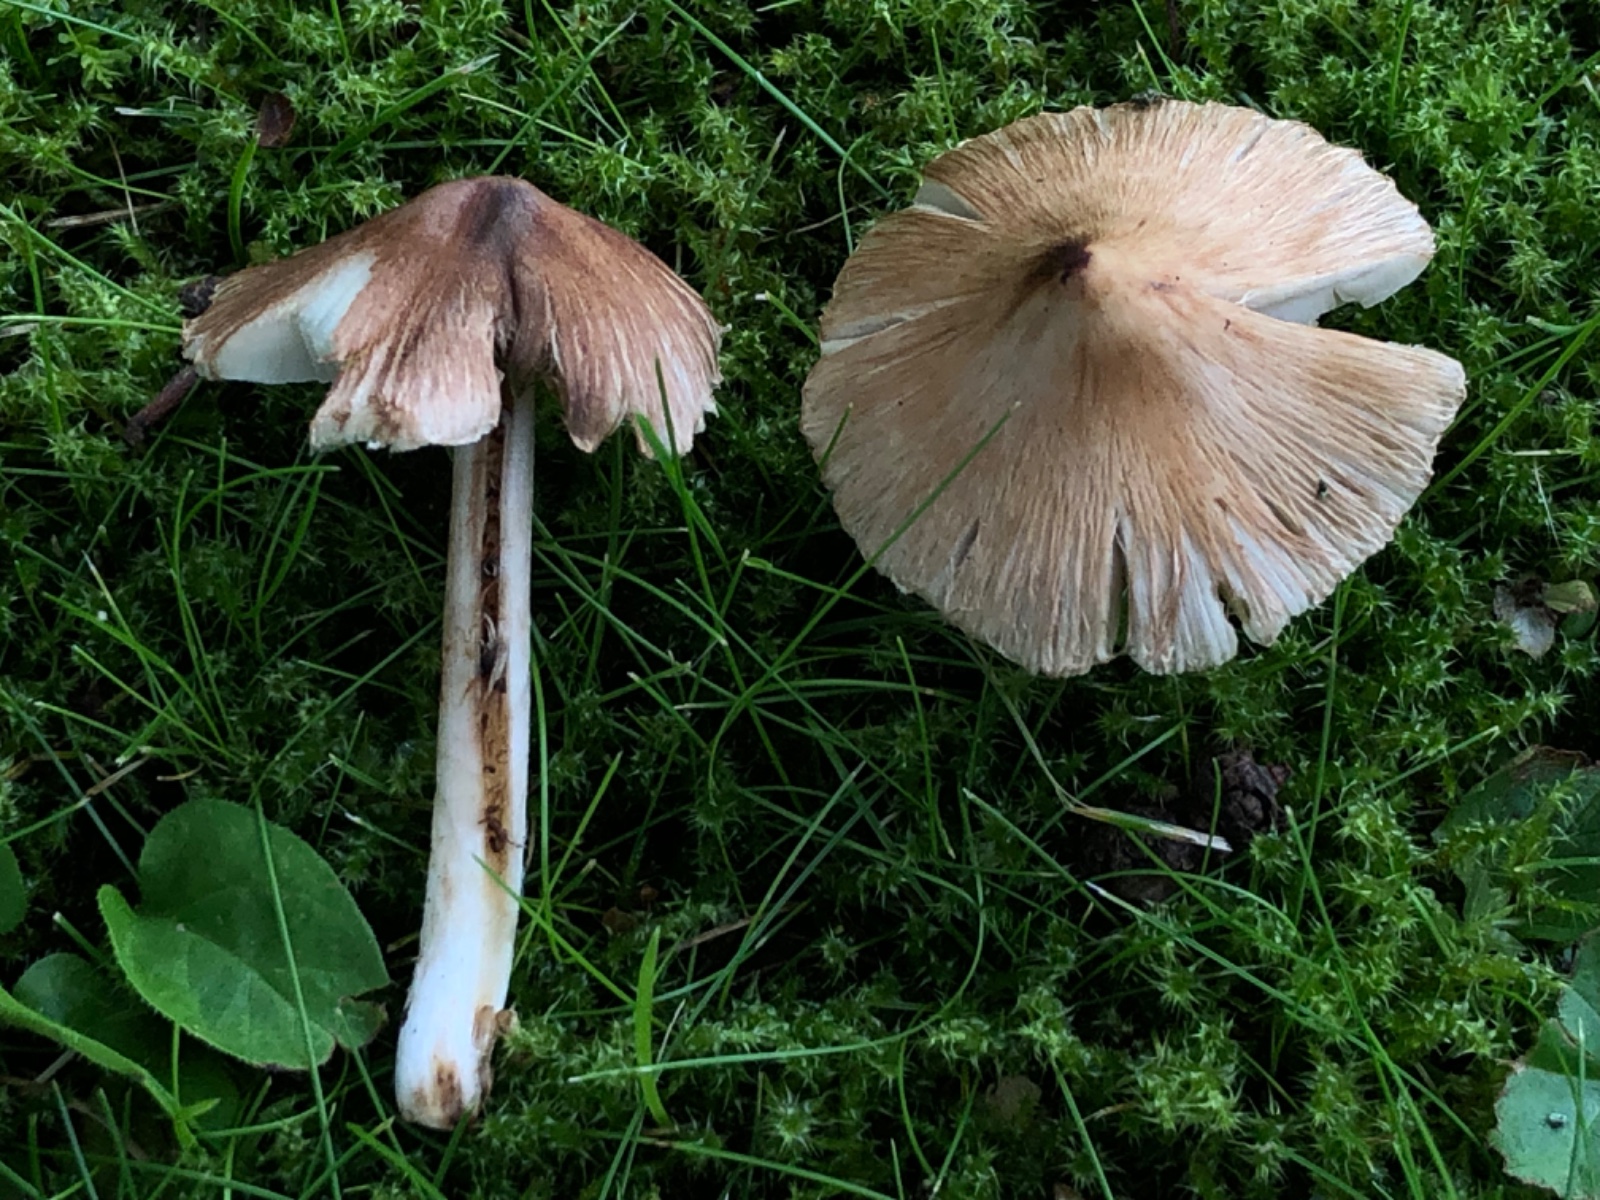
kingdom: Fungi
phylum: Basidiomycota
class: Agaricomycetes
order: Agaricales
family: Inocybaceae
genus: Inosperma
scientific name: Inosperma
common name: Trævlhat
